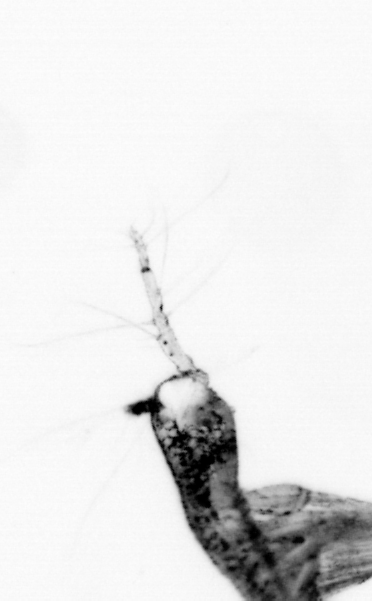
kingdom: Animalia
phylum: Arthropoda
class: Copepoda
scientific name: Copepoda
